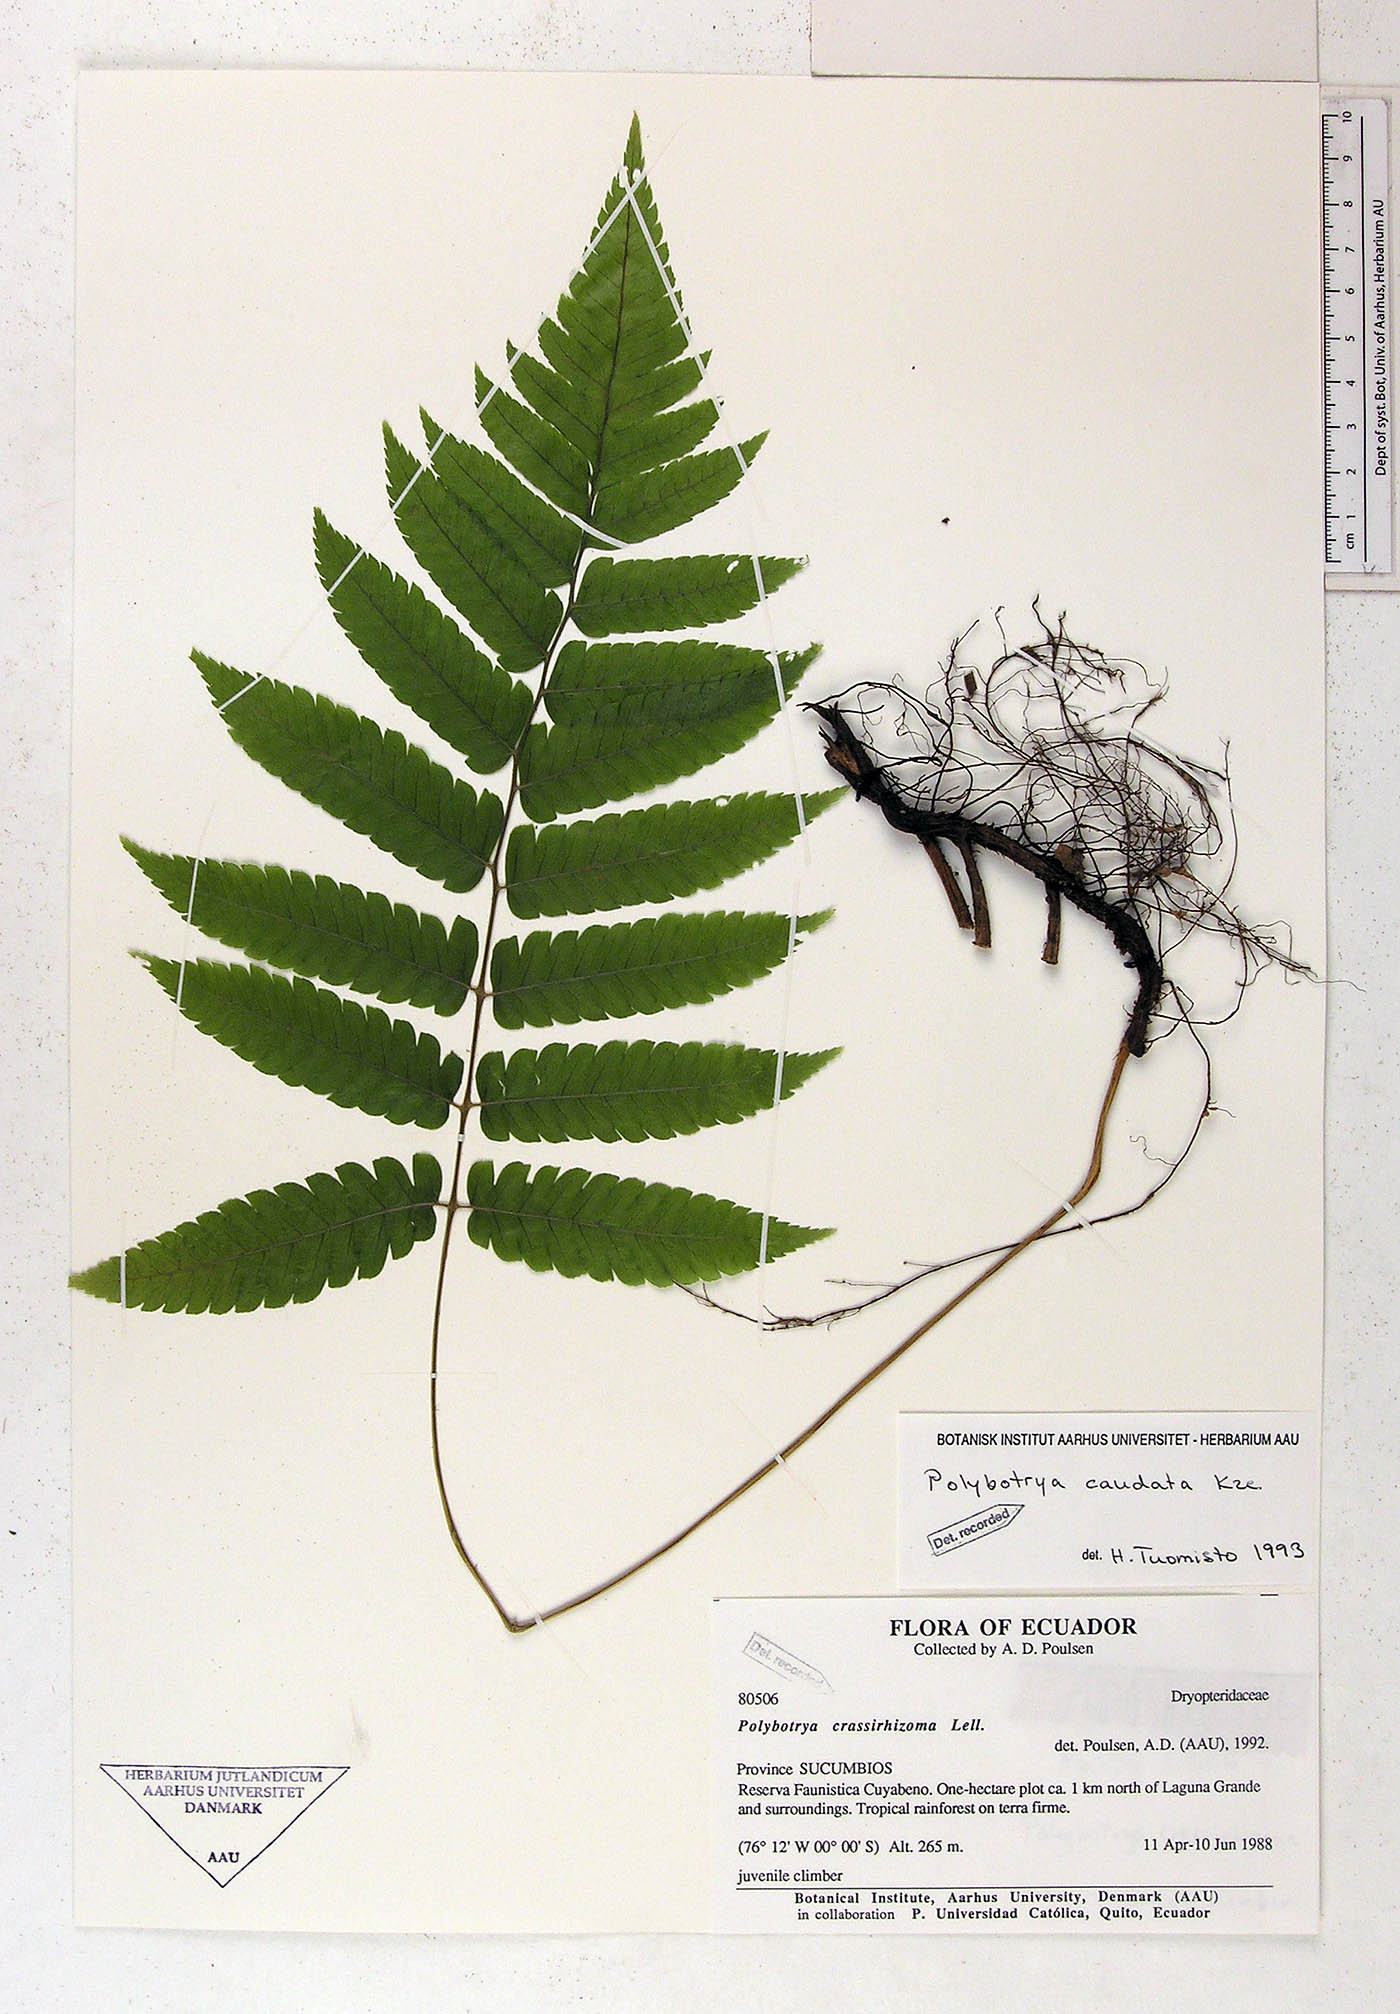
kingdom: Plantae
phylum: Tracheophyta
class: Polypodiopsida
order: Polypodiales
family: Dryopteridaceae
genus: Polybotrya
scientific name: Polybotrya caudata
